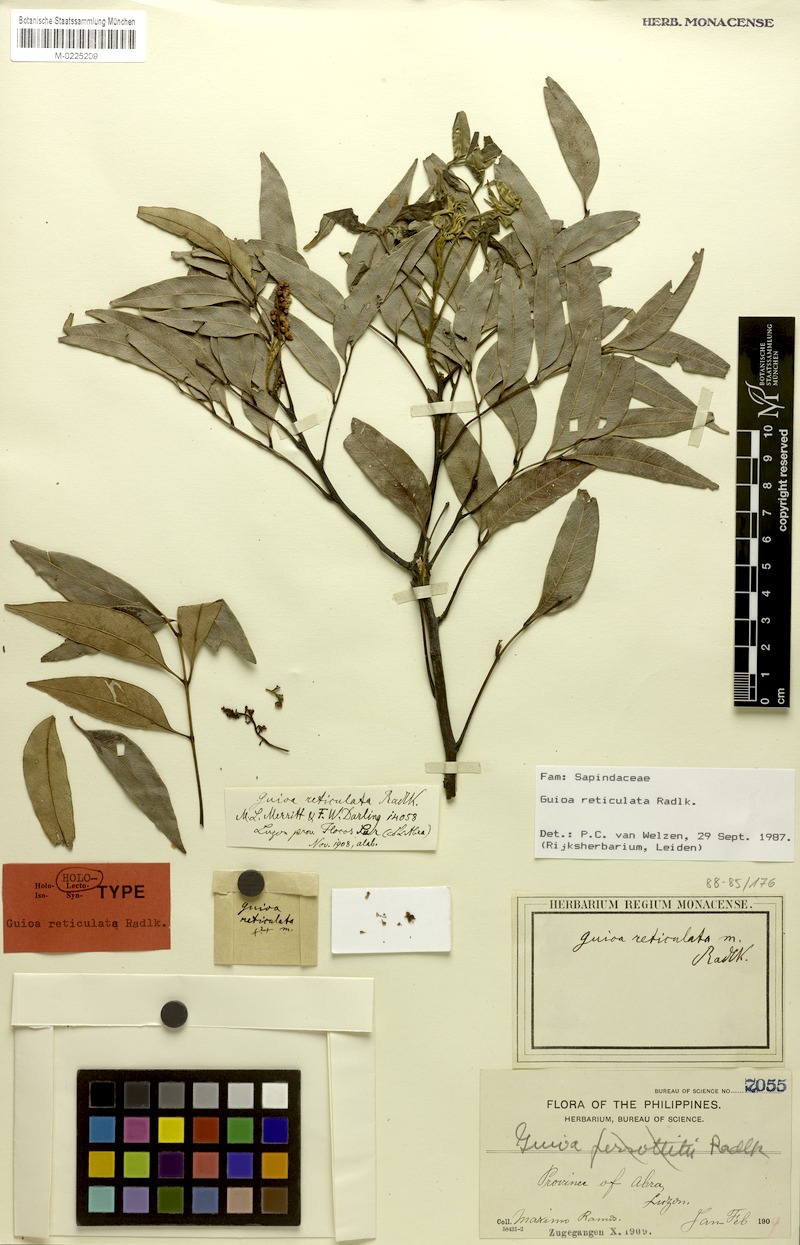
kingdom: Plantae
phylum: Tracheophyta
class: Magnoliopsida
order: Sapindales
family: Sapindaceae
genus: Guioa
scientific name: Guioa reticulata
